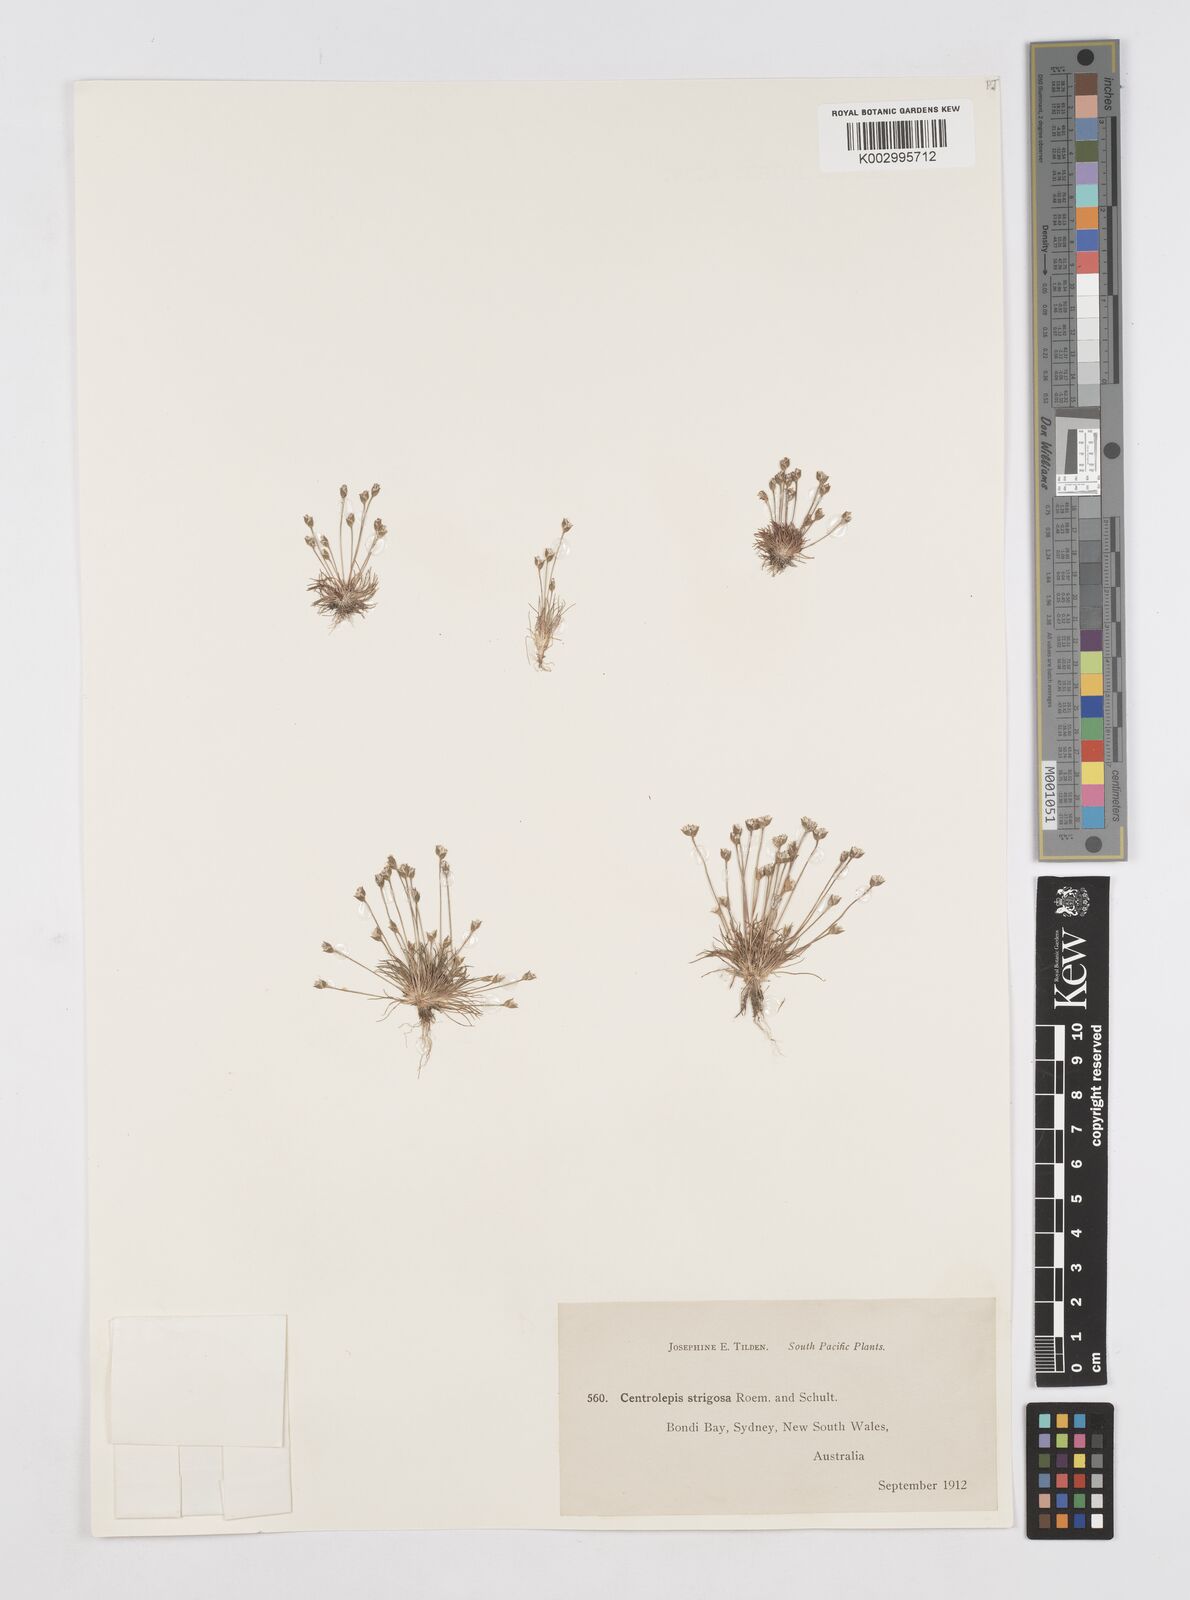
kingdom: Plantae
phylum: Tracheophyta
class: Liliopsida
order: Poales
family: Restionaceae
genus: Centrolepis
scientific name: Centrolepis strigosa
